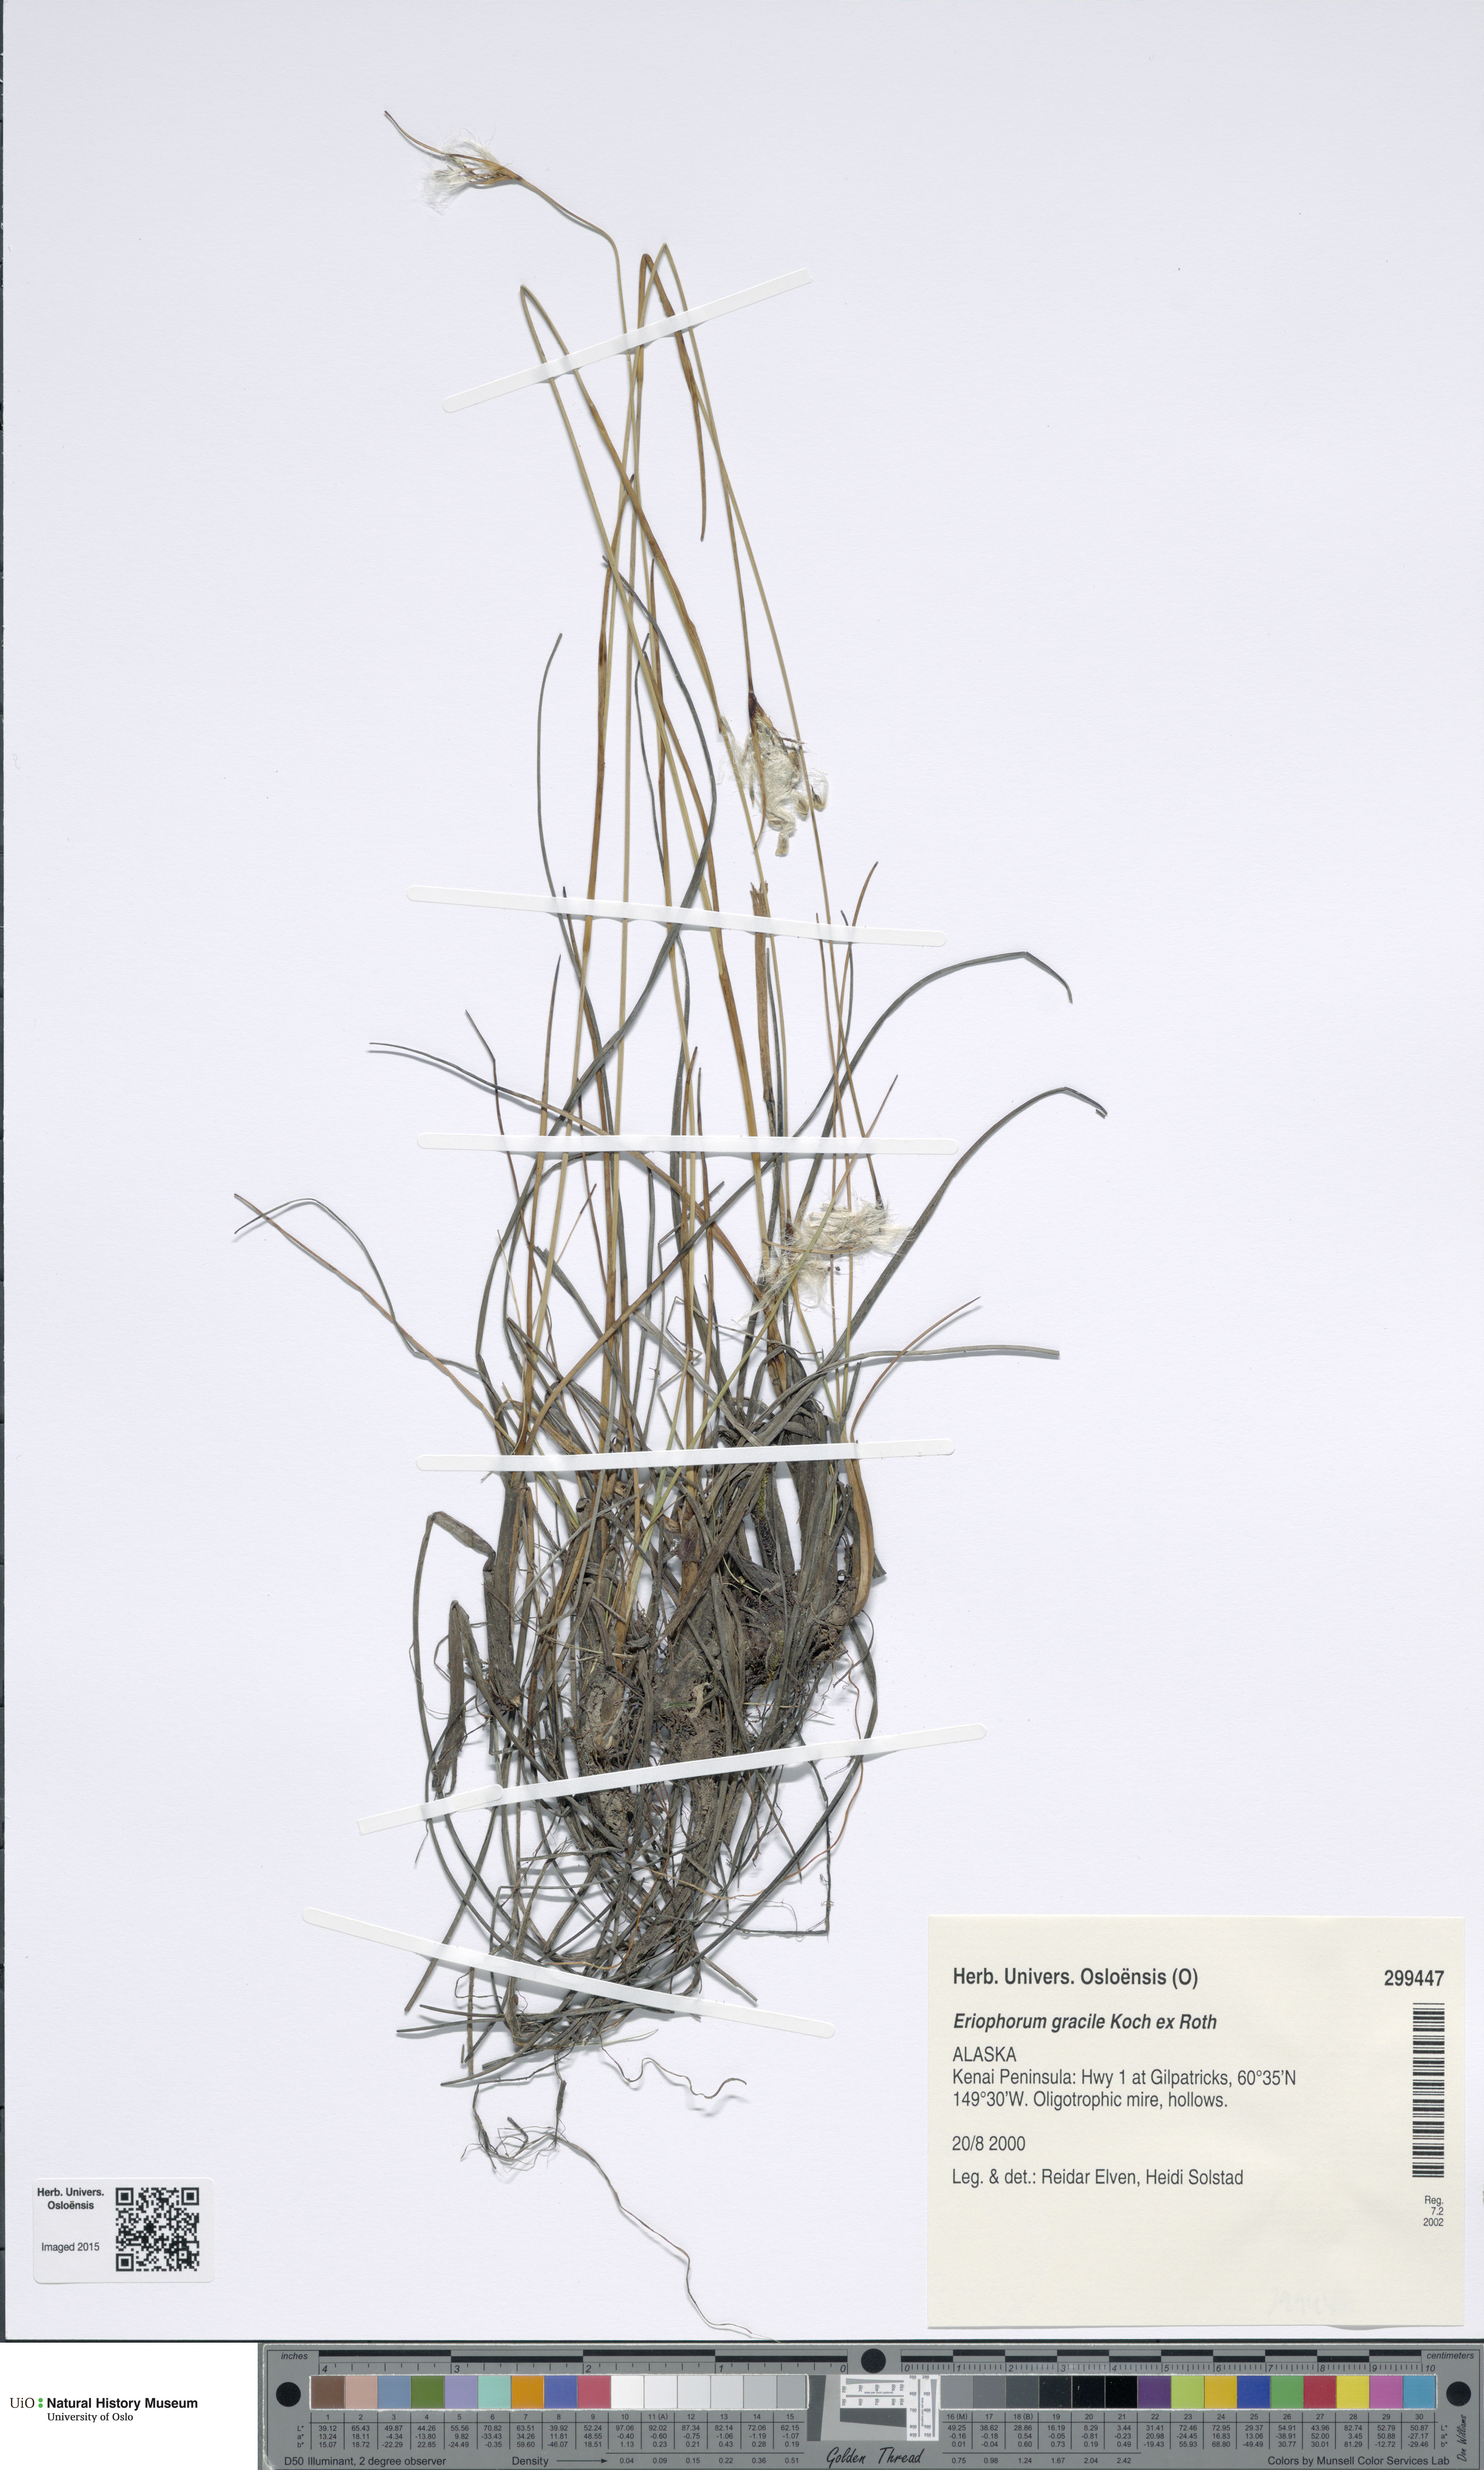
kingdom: Plantae
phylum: Tracheophyta
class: Liliopsida
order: Poales
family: Cyperaceae
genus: Eriophorum
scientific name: Eriophorum gracile
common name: Slender cottongrass
